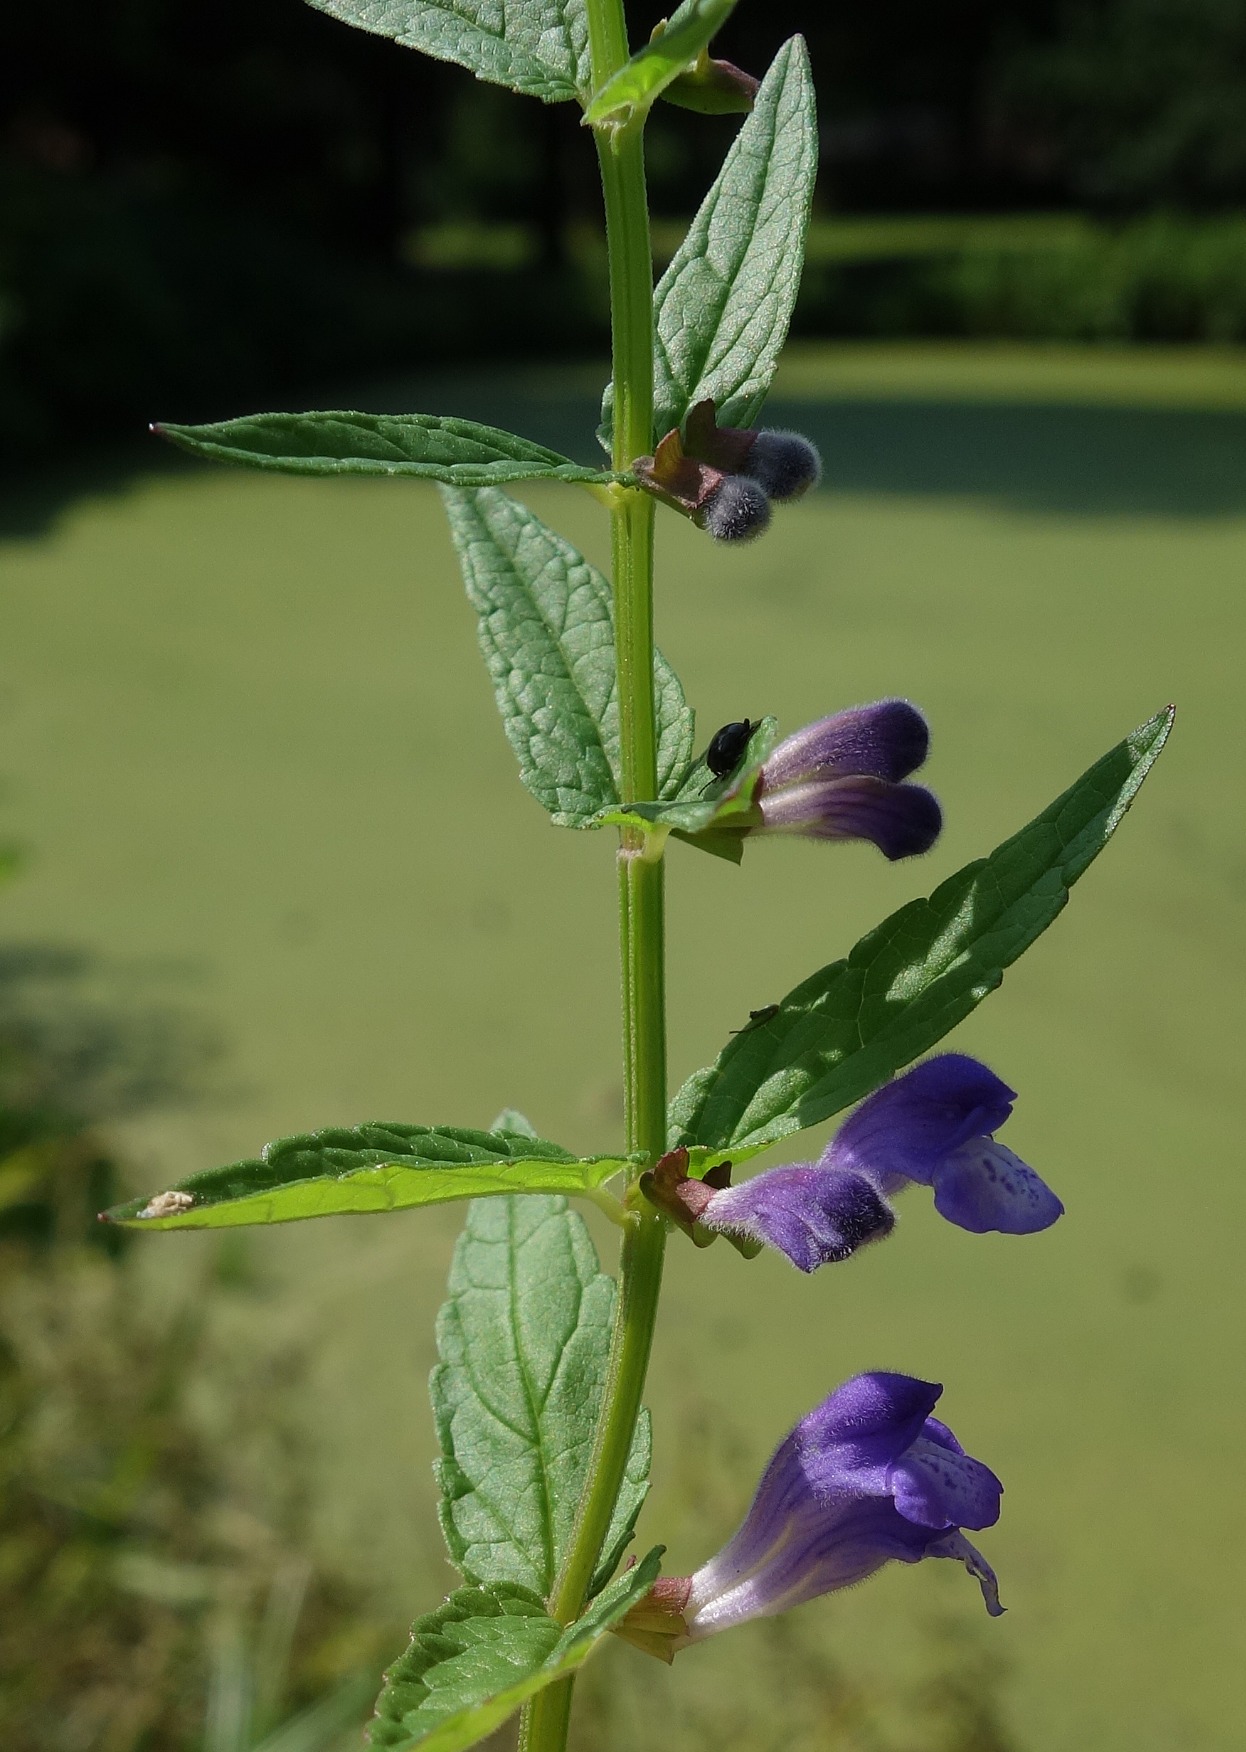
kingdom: Plantae
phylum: Tracheophyta
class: Magnoliopsida
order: Lamiales
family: Lamiaceae
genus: Scutellaria
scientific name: Scutellaria galericulata
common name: Almindelig skjolddrager
